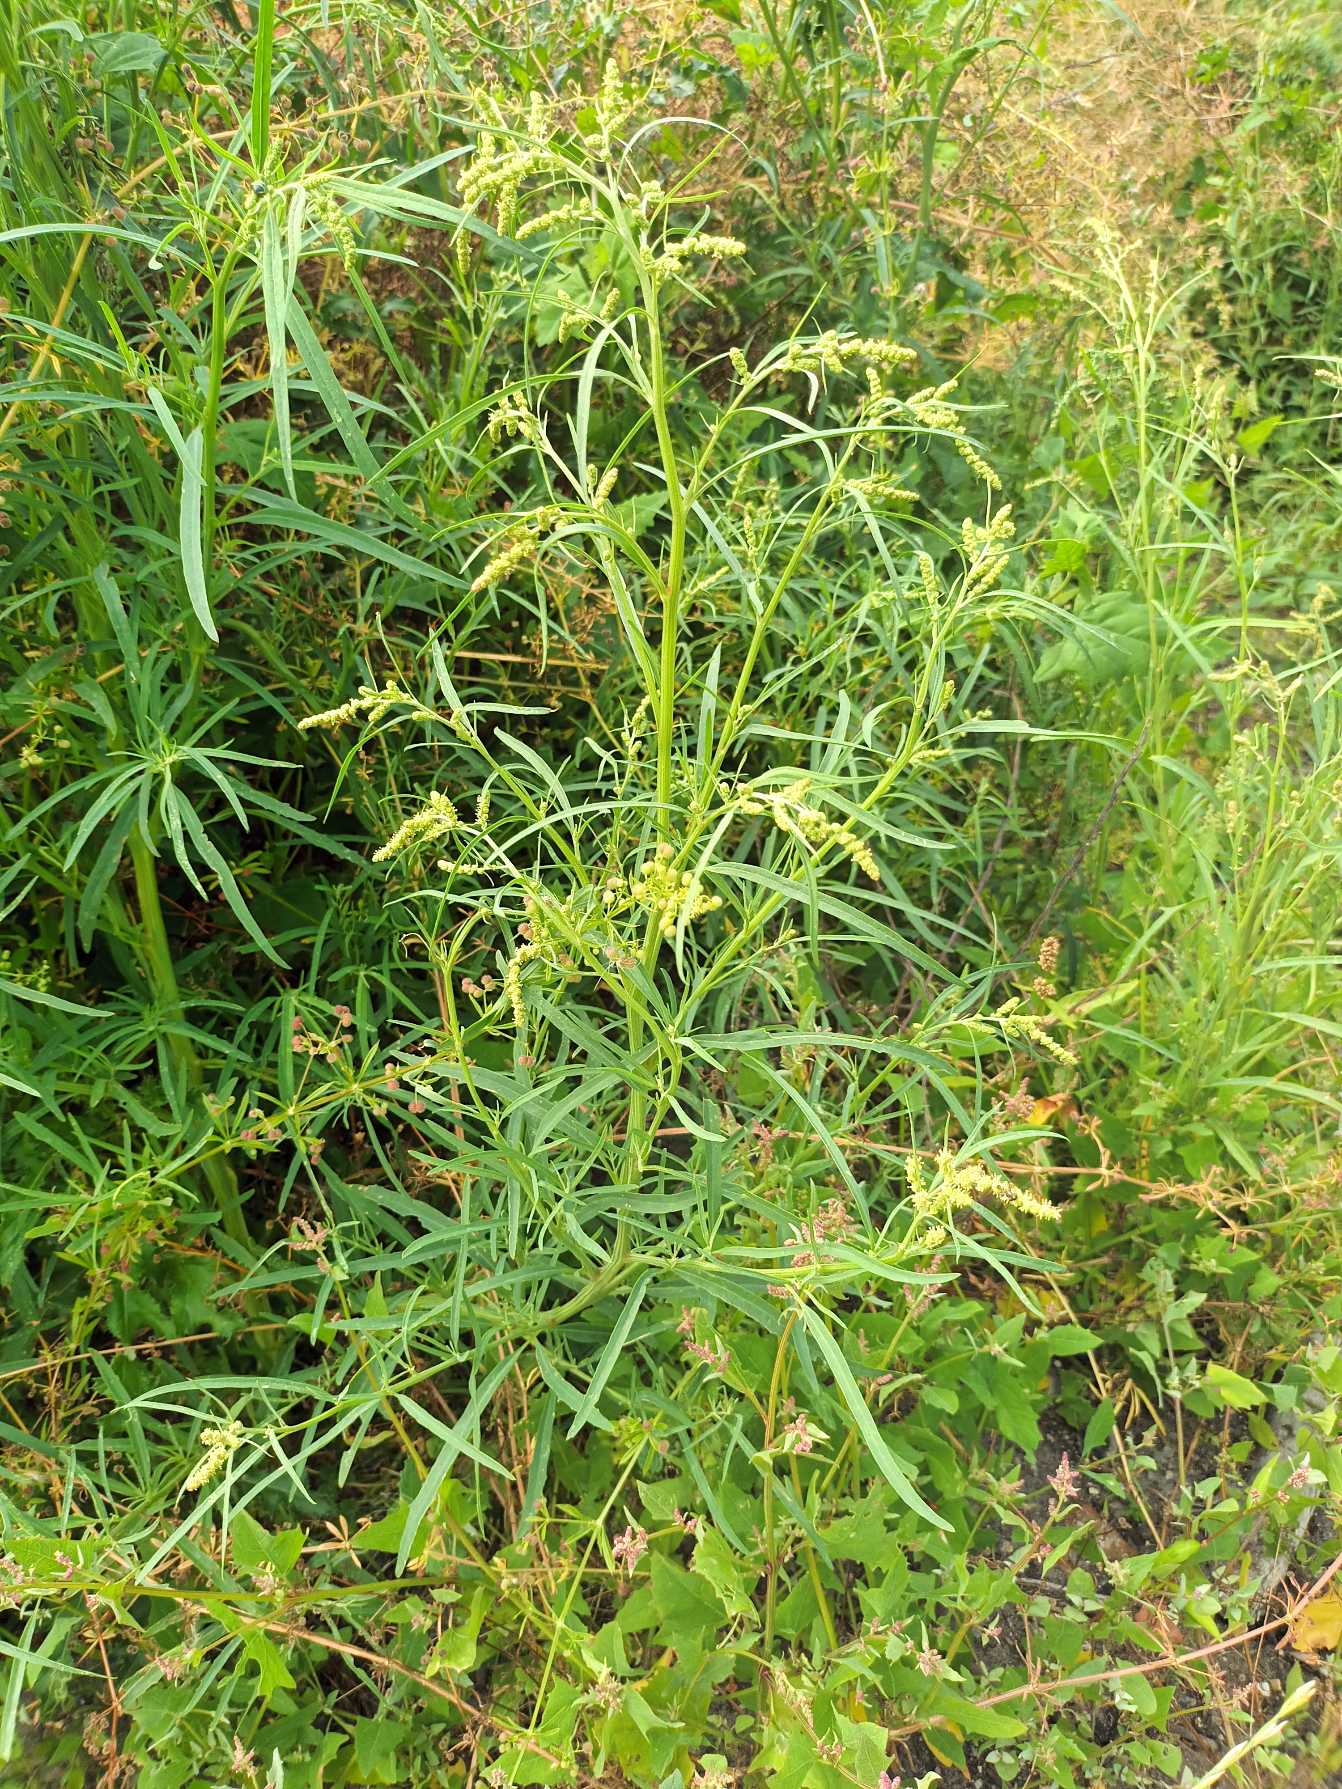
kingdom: Plantae
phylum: Tracheophyta
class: Magnoliopsida
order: Caryophyllales
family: Amaranthaceae
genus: Atriplex
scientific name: Atriplex littoralis
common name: Strand-mælde
